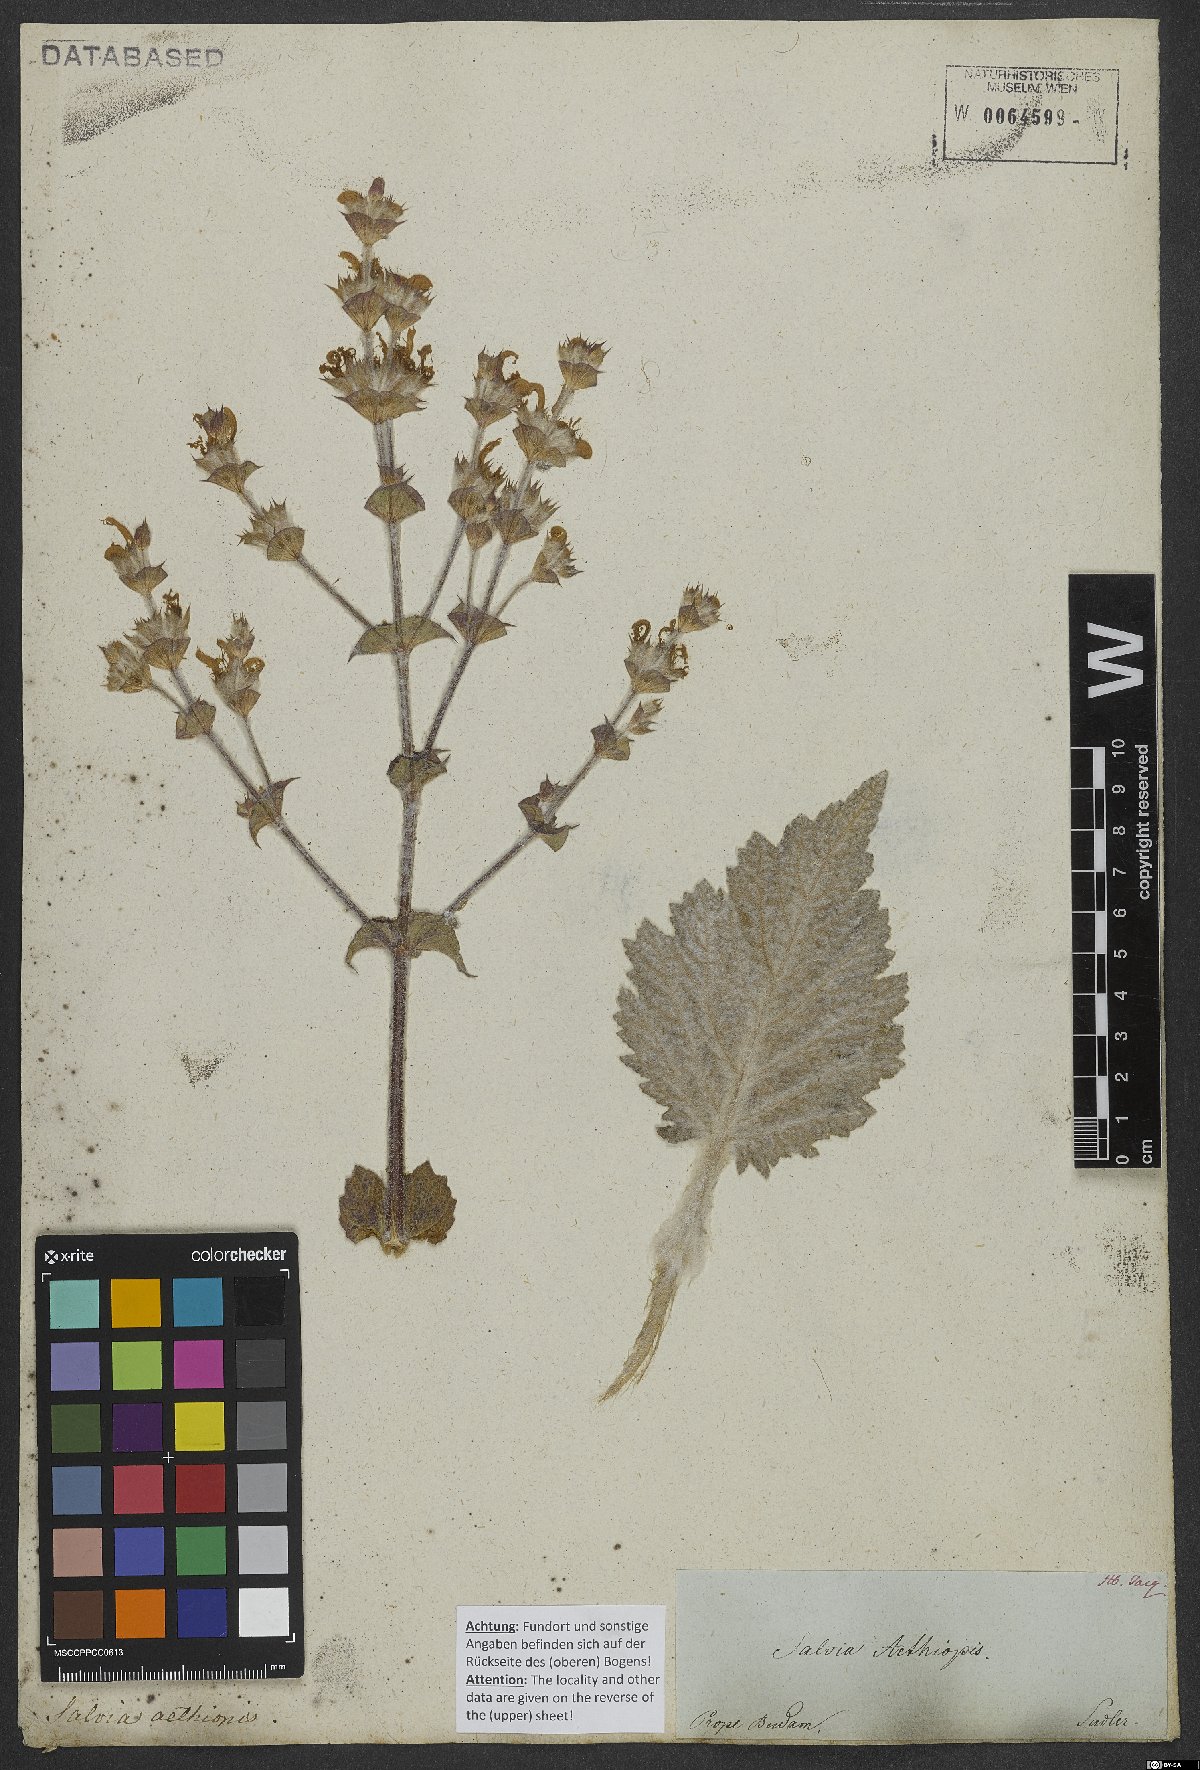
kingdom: Plantae
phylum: Tracheophyta
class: Magnoliopsida
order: Lamiales
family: Lamiaceae
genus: Salvia
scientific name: Salvia aethiopis
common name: Mediterranean sage
